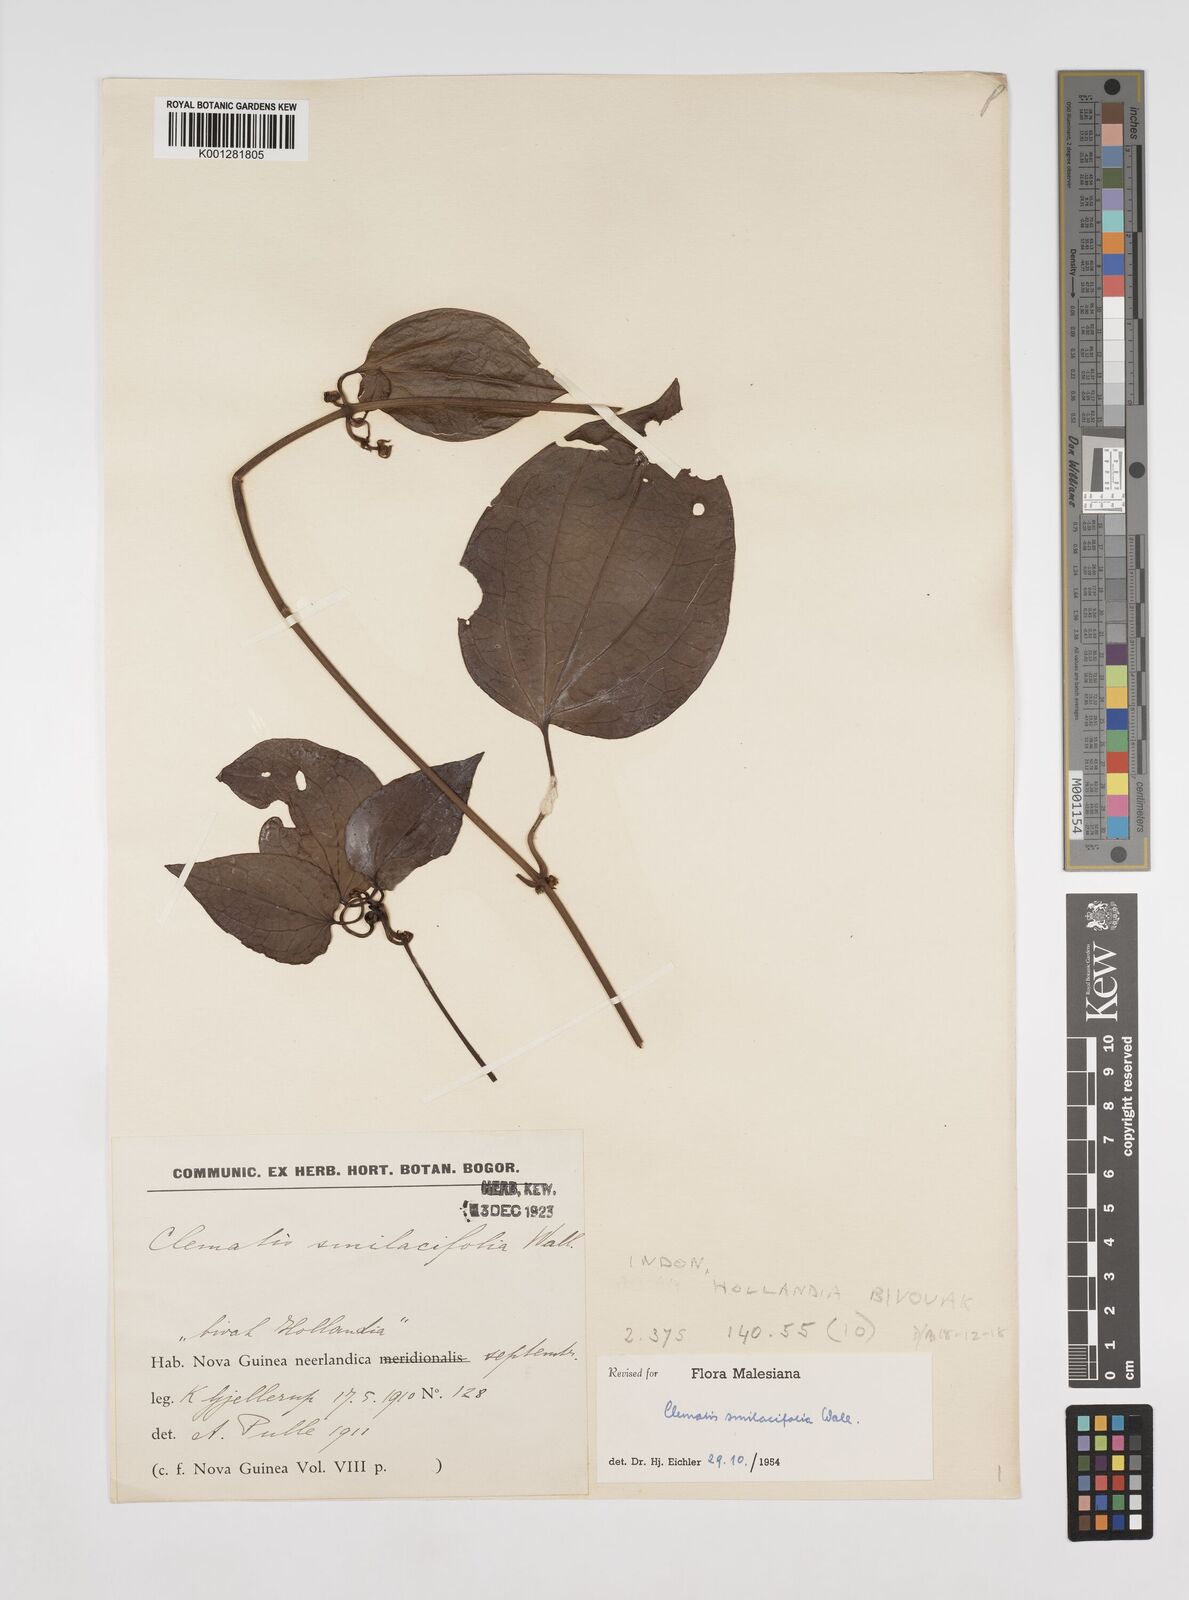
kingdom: Plantae
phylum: Tracheophyta
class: Magnoliopsida
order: Ranunculales
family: Ranunculaceae
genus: Clematis
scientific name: Clematis smilacifolia
